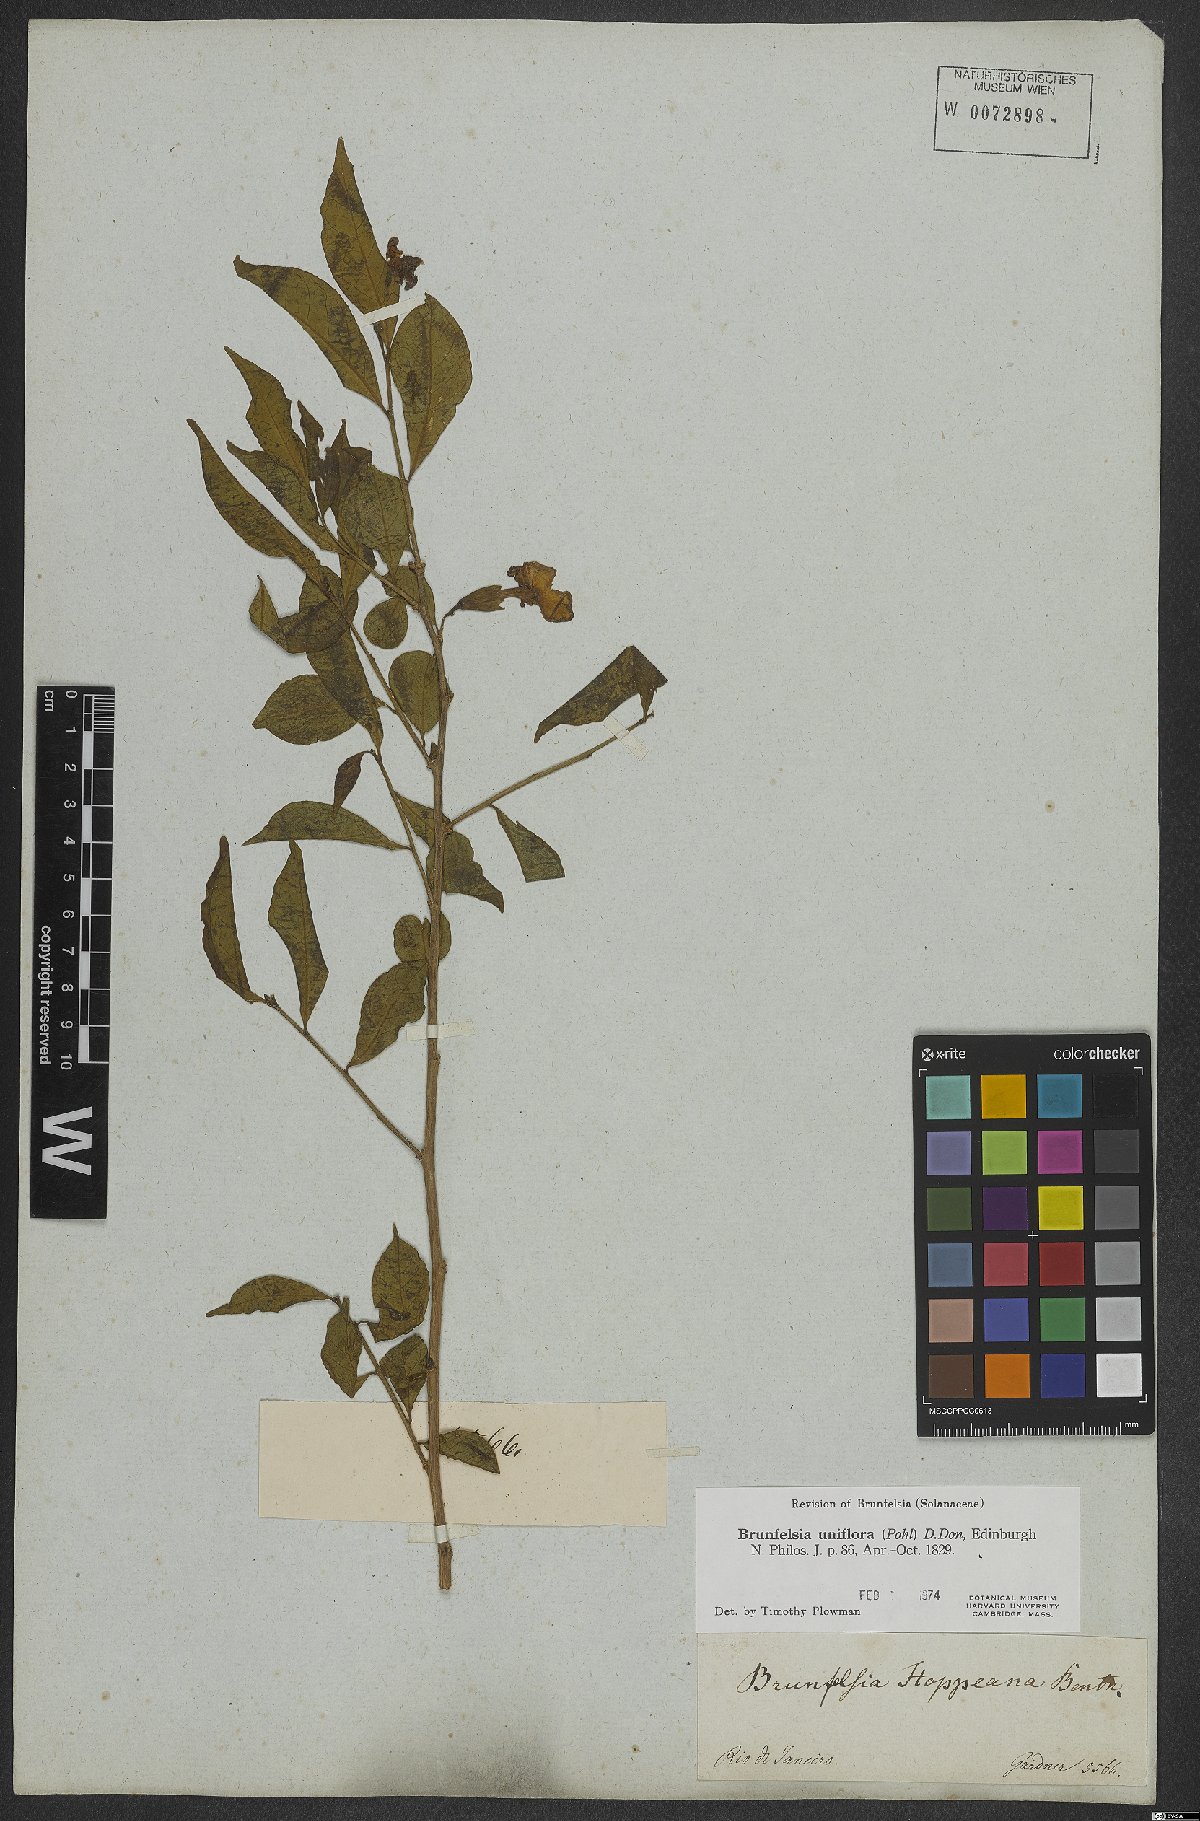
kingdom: Plantae
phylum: Tracheophyta
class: Magnoliopsida
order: Solanales
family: Solanaceae
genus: Brunfelsia
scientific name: Brunfelsia uniflora
